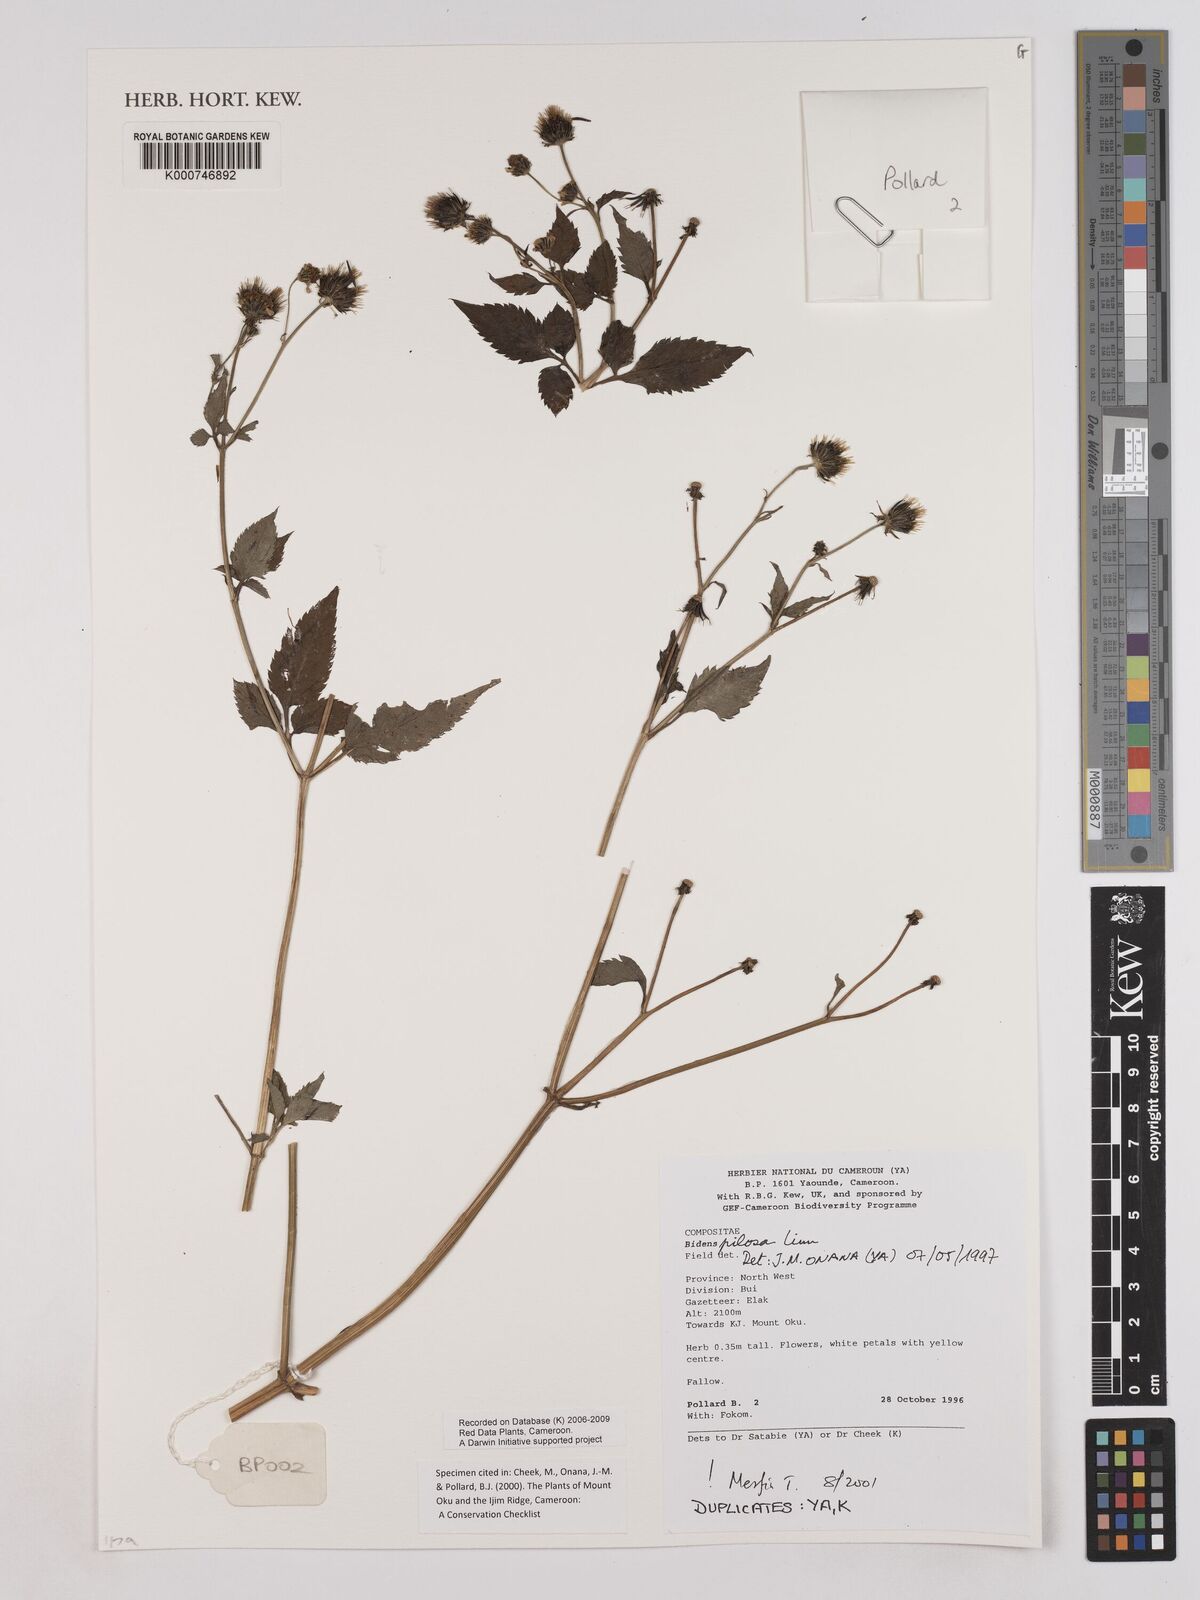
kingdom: Plantae
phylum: Tracheophyta
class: Magnoliopsida
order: Asterales
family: Asteraceae
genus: Bidens
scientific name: Bidens pilosa
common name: Black-jack
